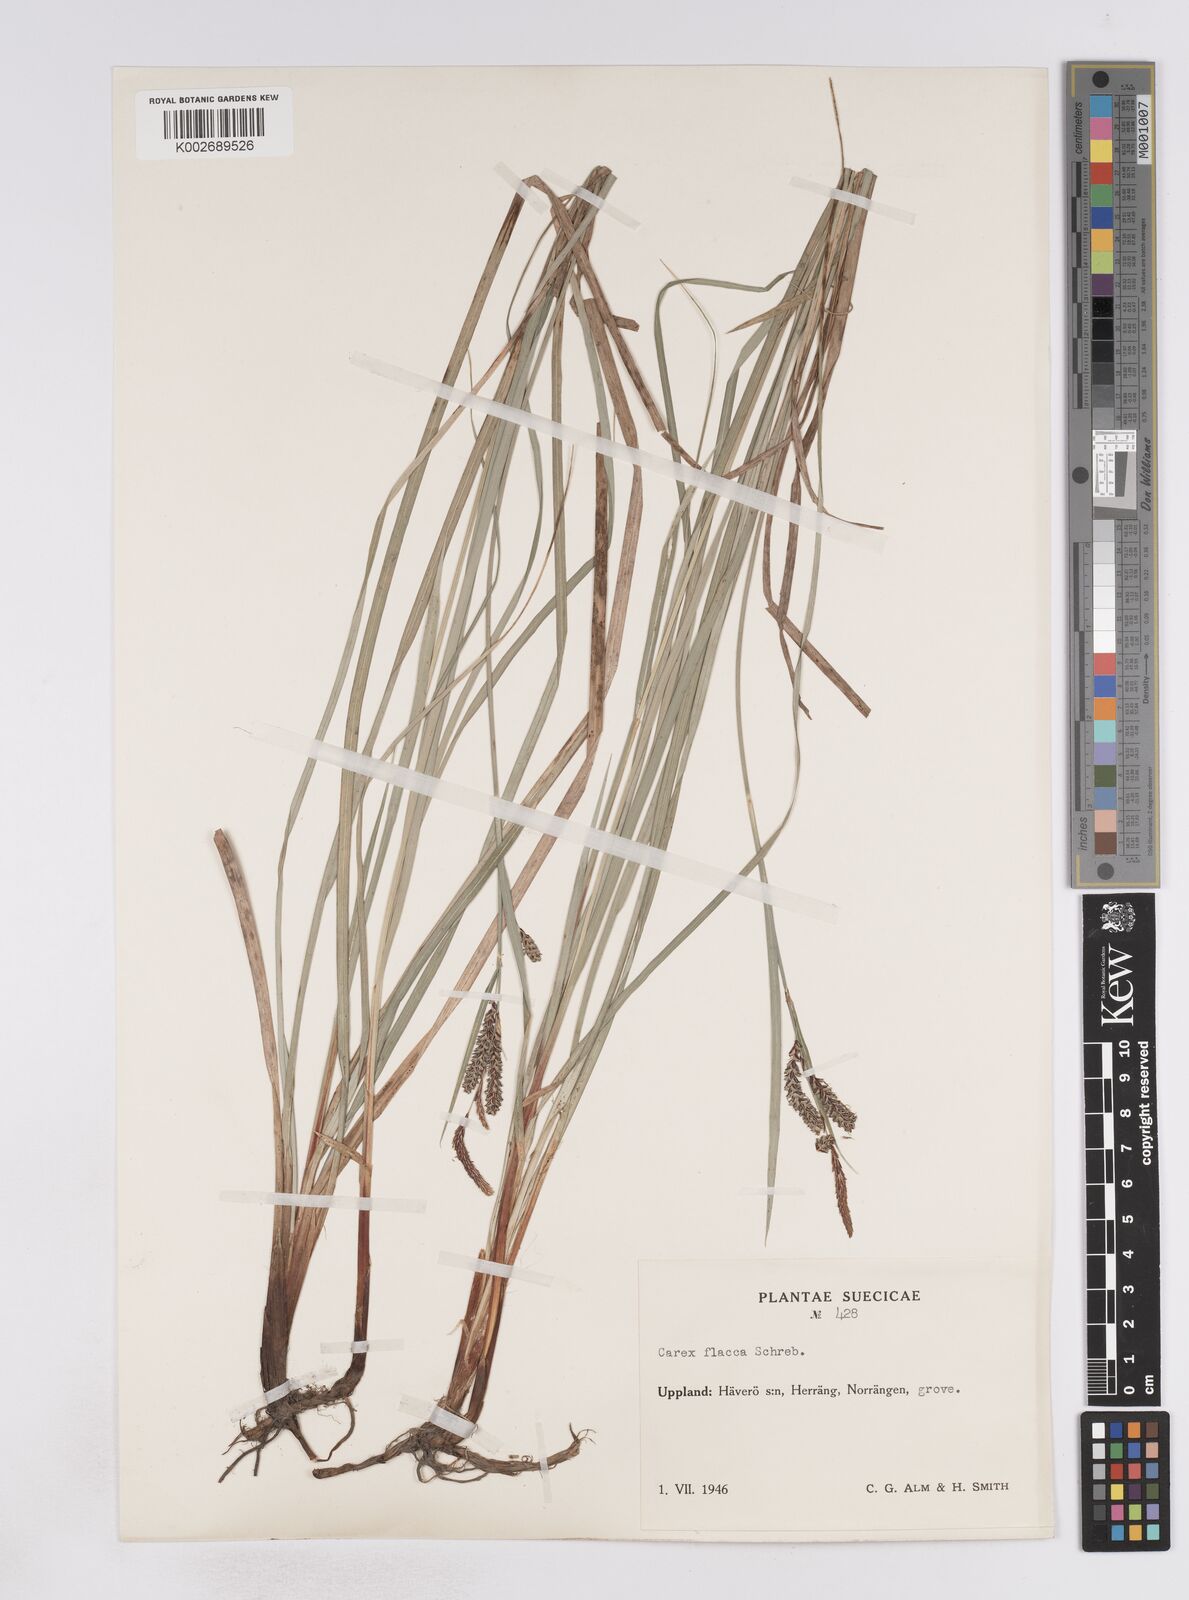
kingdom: Plantae
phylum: Tracheophyta
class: Liliopsida
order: Poales
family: Cyperaceae
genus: Carex
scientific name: Carex flacca
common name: Glaucous sedge
